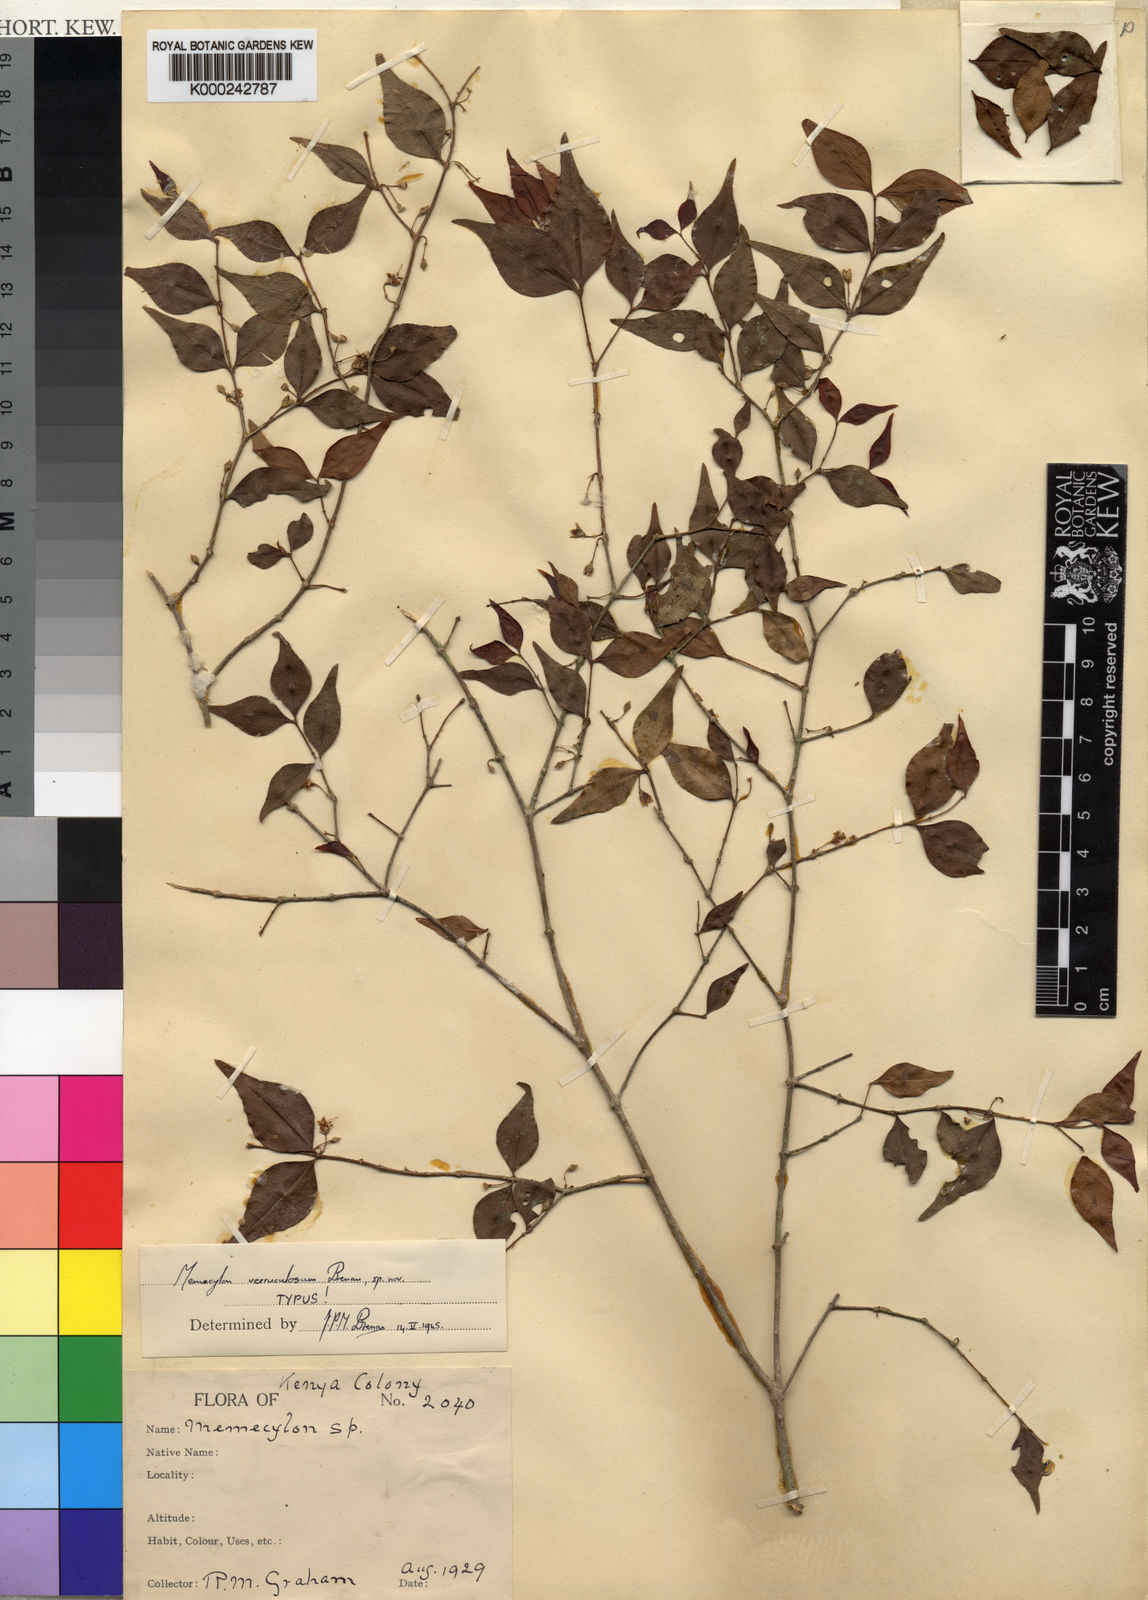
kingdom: Plantae
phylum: Tracheophyta
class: Magnoliopsida
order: Myrtales
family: Melastomataceae
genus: Memecylon
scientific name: Memecylon verruculosum
